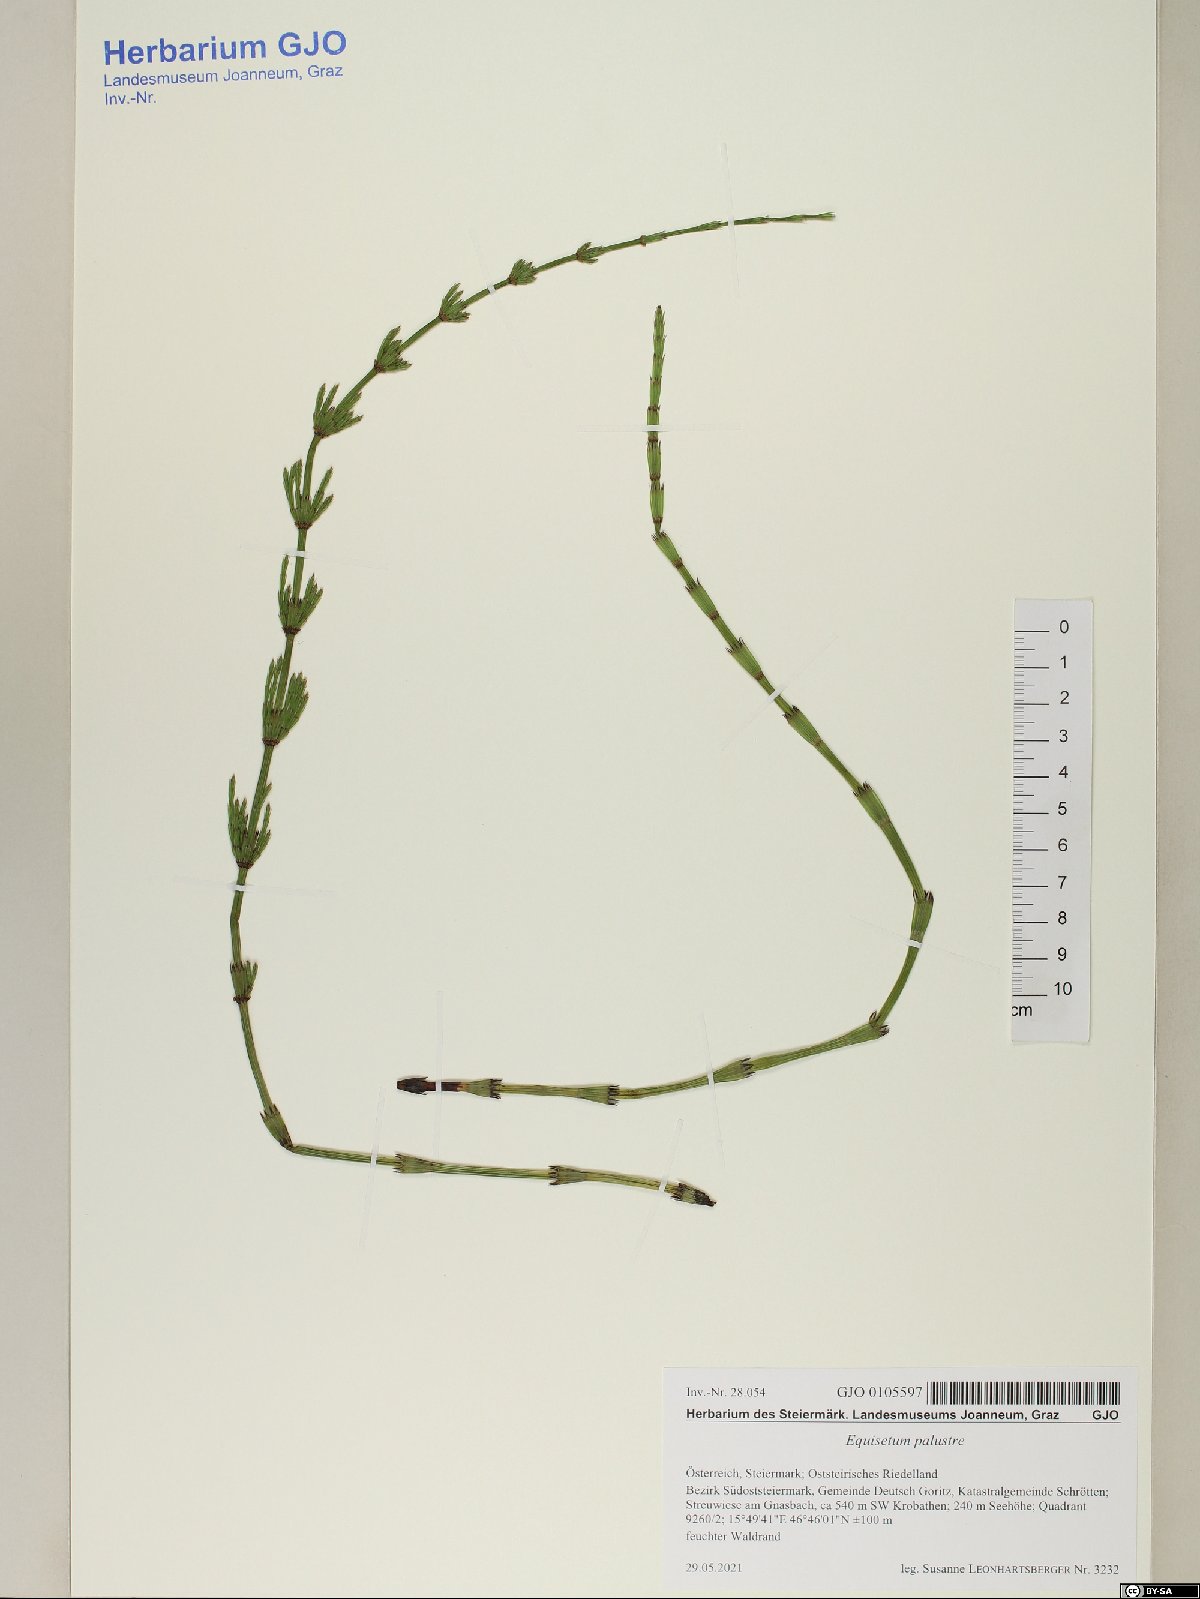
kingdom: Plantae
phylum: Tracheophyta
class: Polypodiopsida
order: Equisetales
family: Equisetaceae
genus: Equisetum
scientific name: Equisetum palustre
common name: Marsh horsetail
